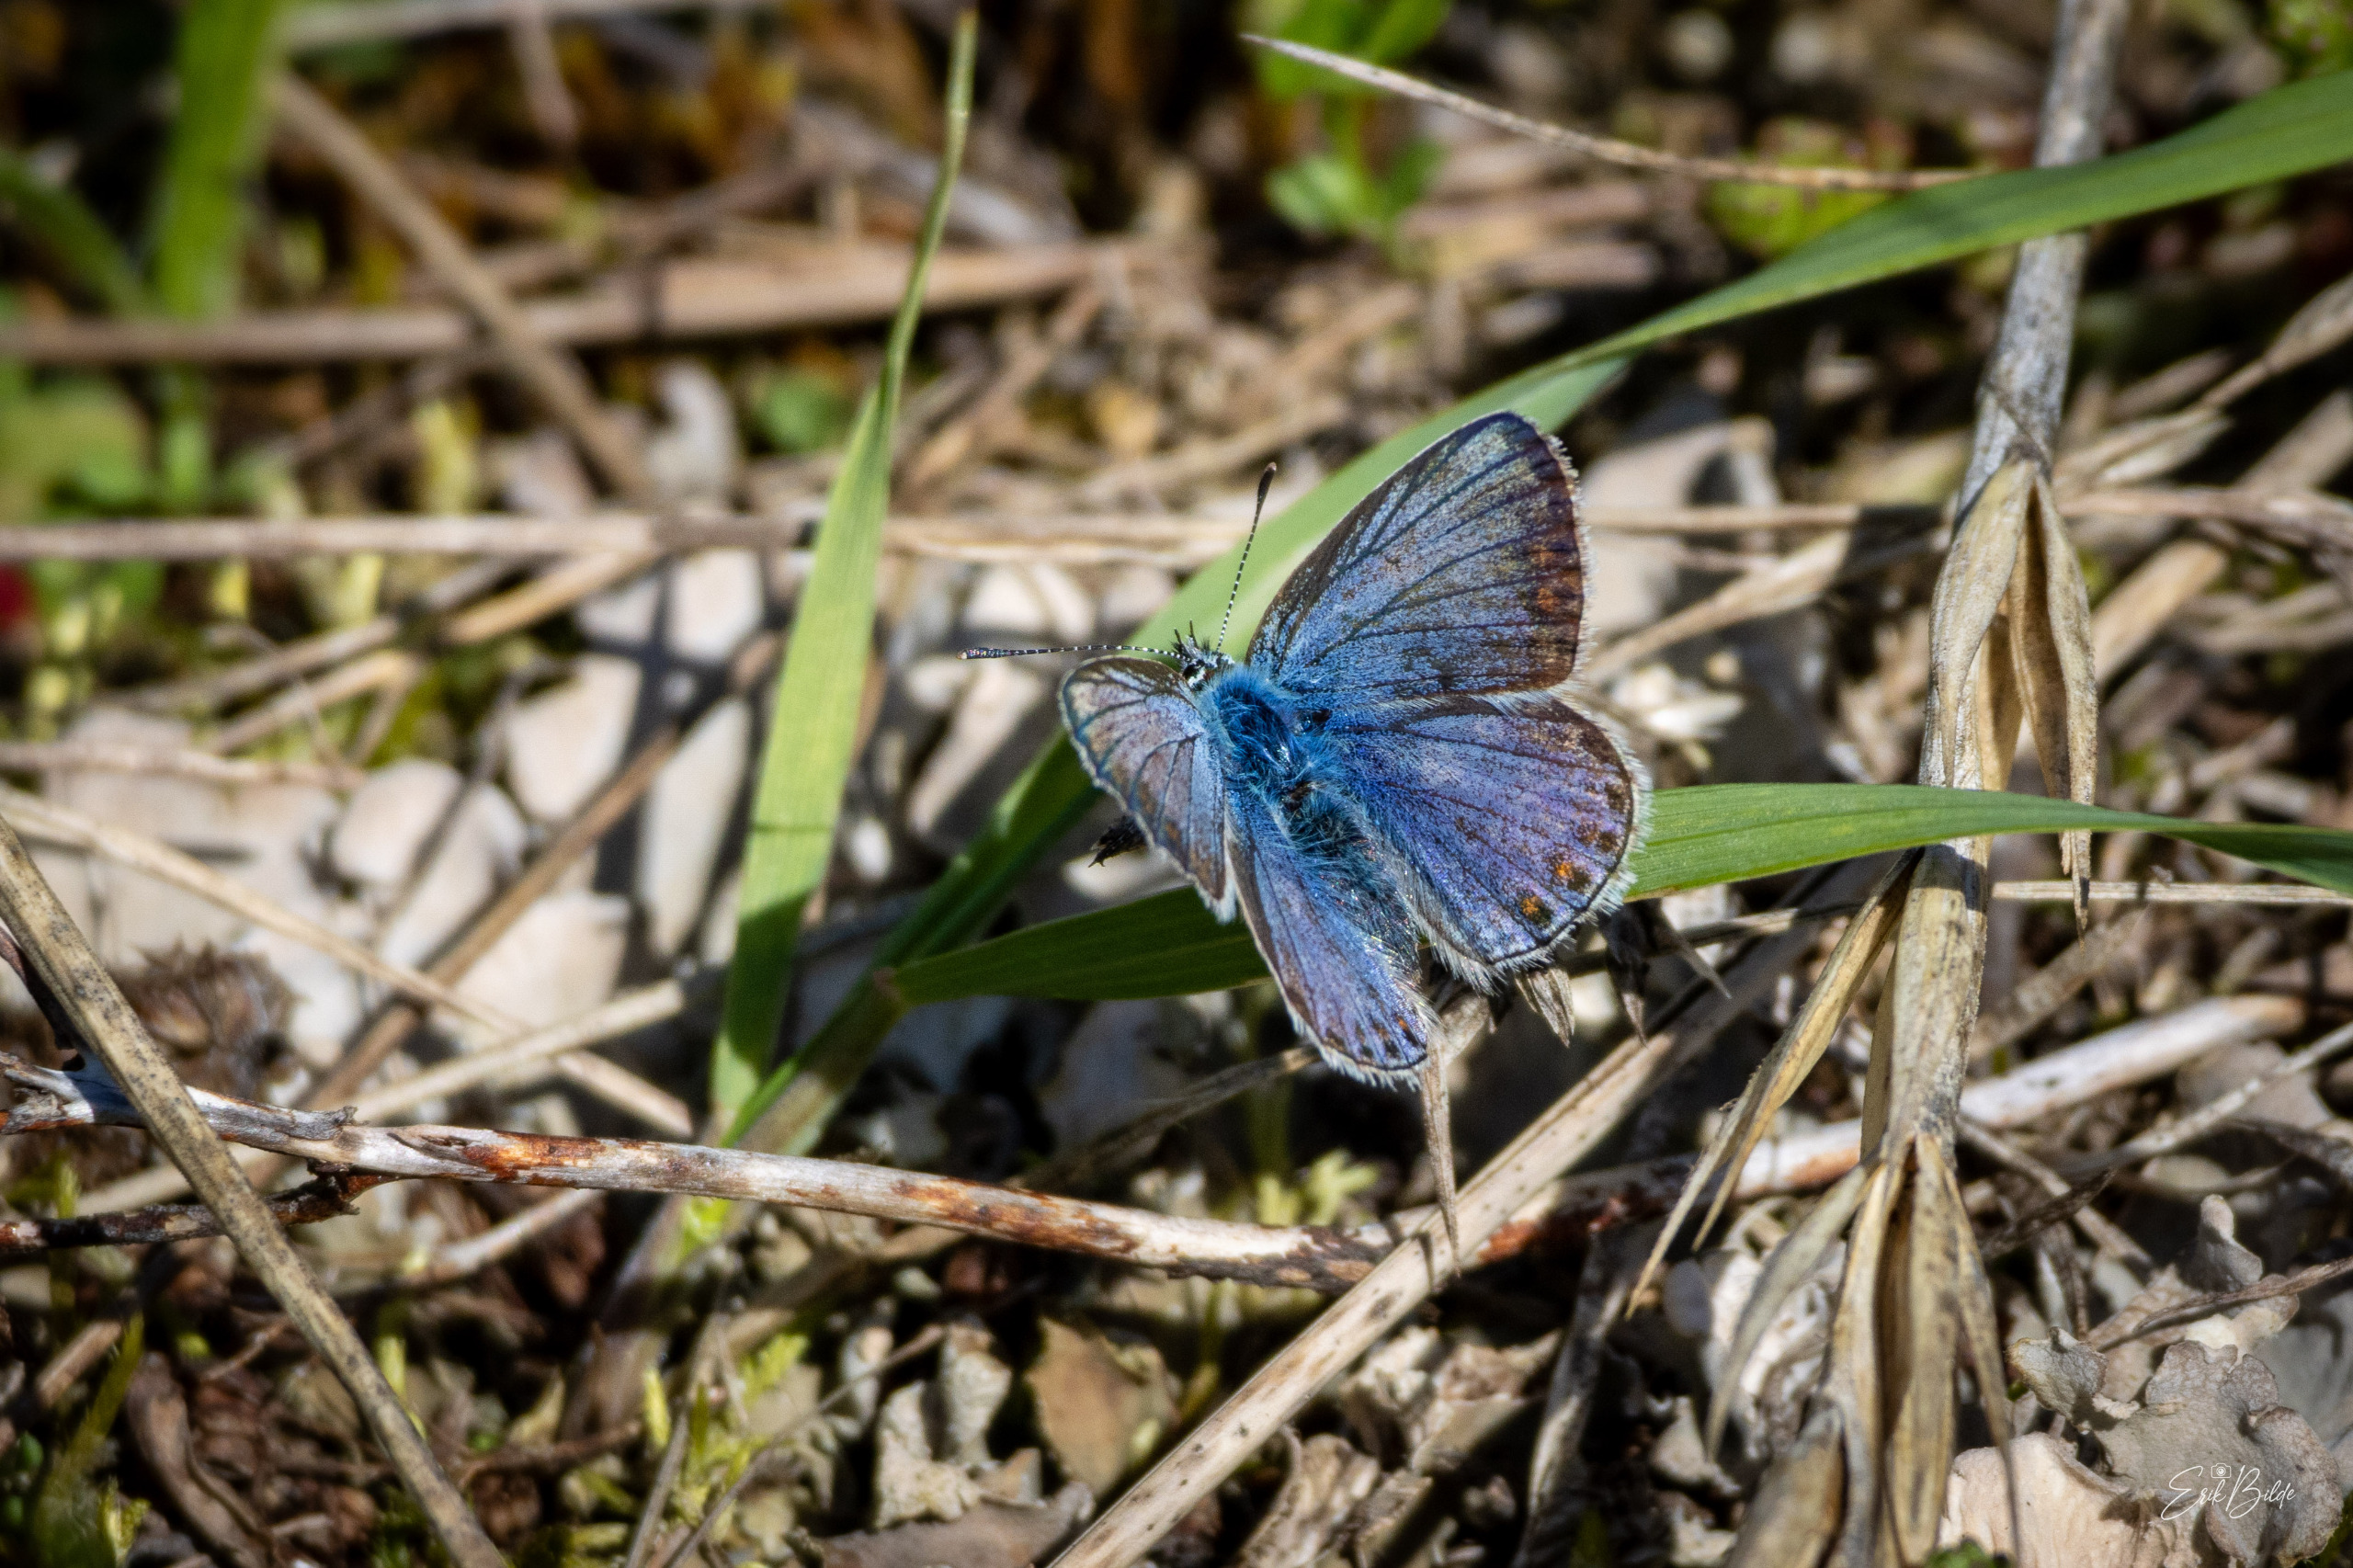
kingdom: Animalia
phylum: Arthropoda
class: Insecta
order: Lepidoptera
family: Lycaenidae
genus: Polyommatus
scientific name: Polyommatus icarus
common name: Almindelig blåfugl
